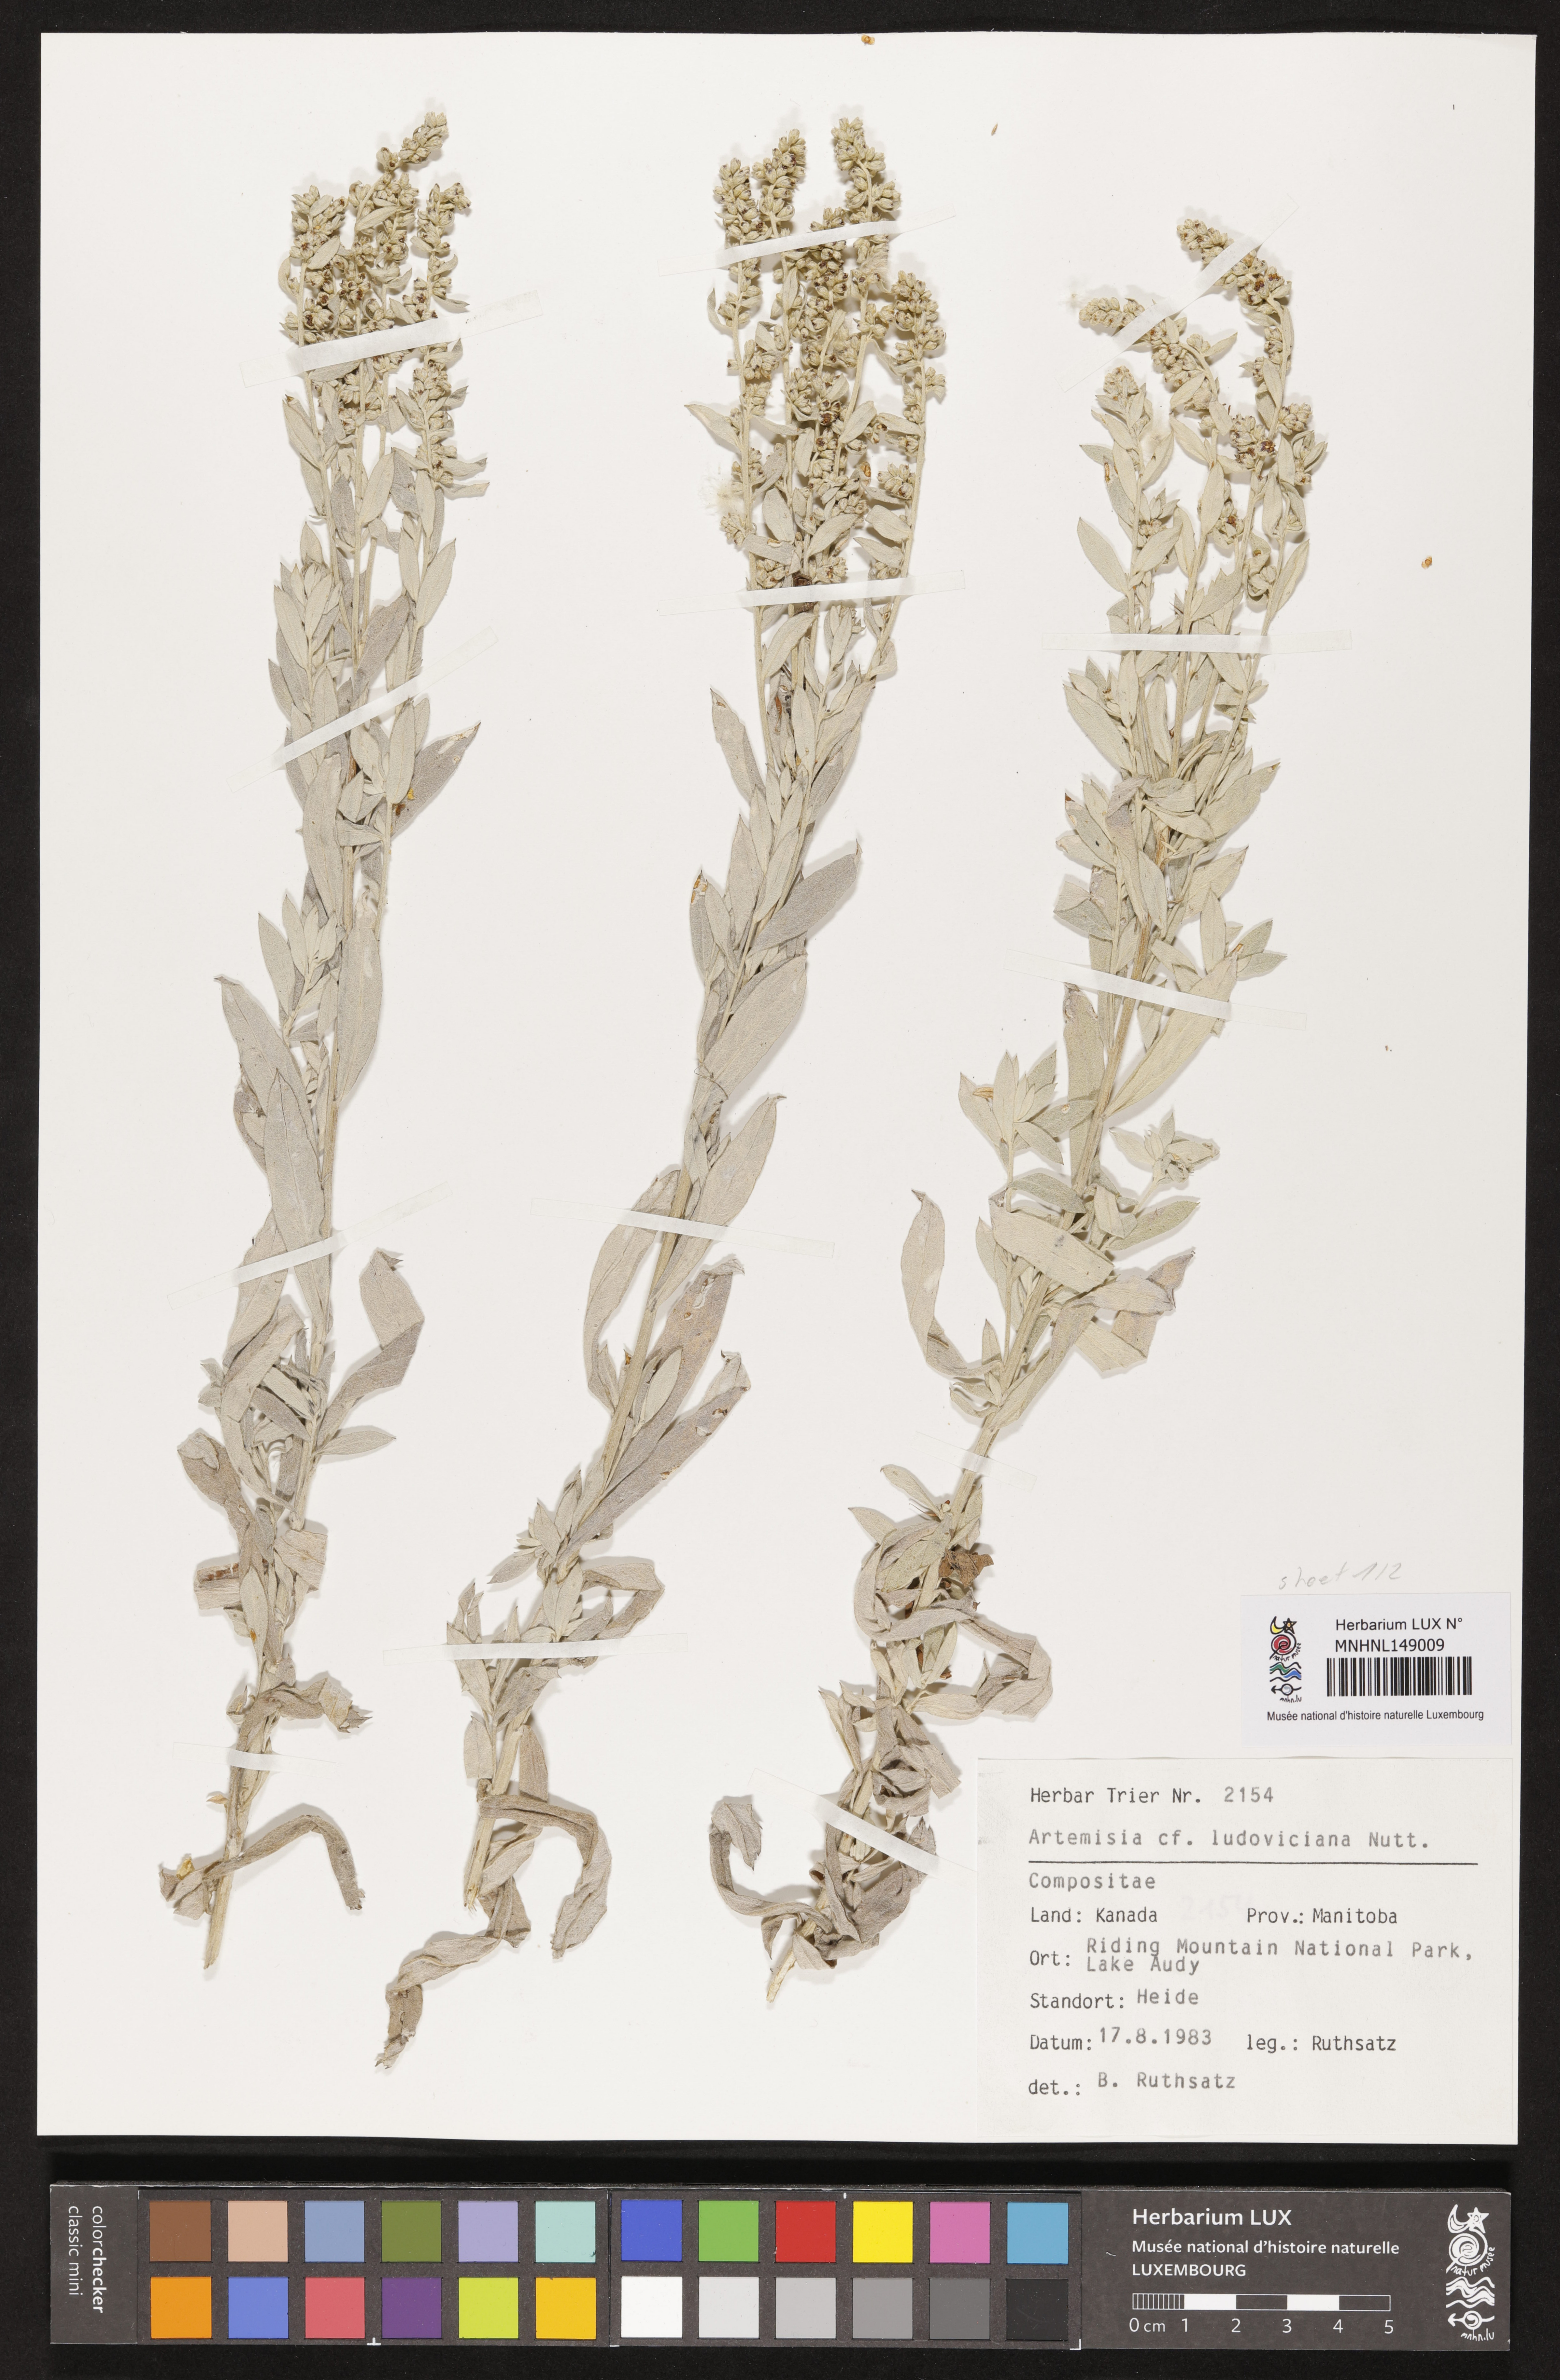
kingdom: Plantae
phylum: Tracheophyta
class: Magnoliopsida
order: Asterales
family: Asteraceae
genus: Artemisia
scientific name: Artemisia ludoviciana
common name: Western mugwort
